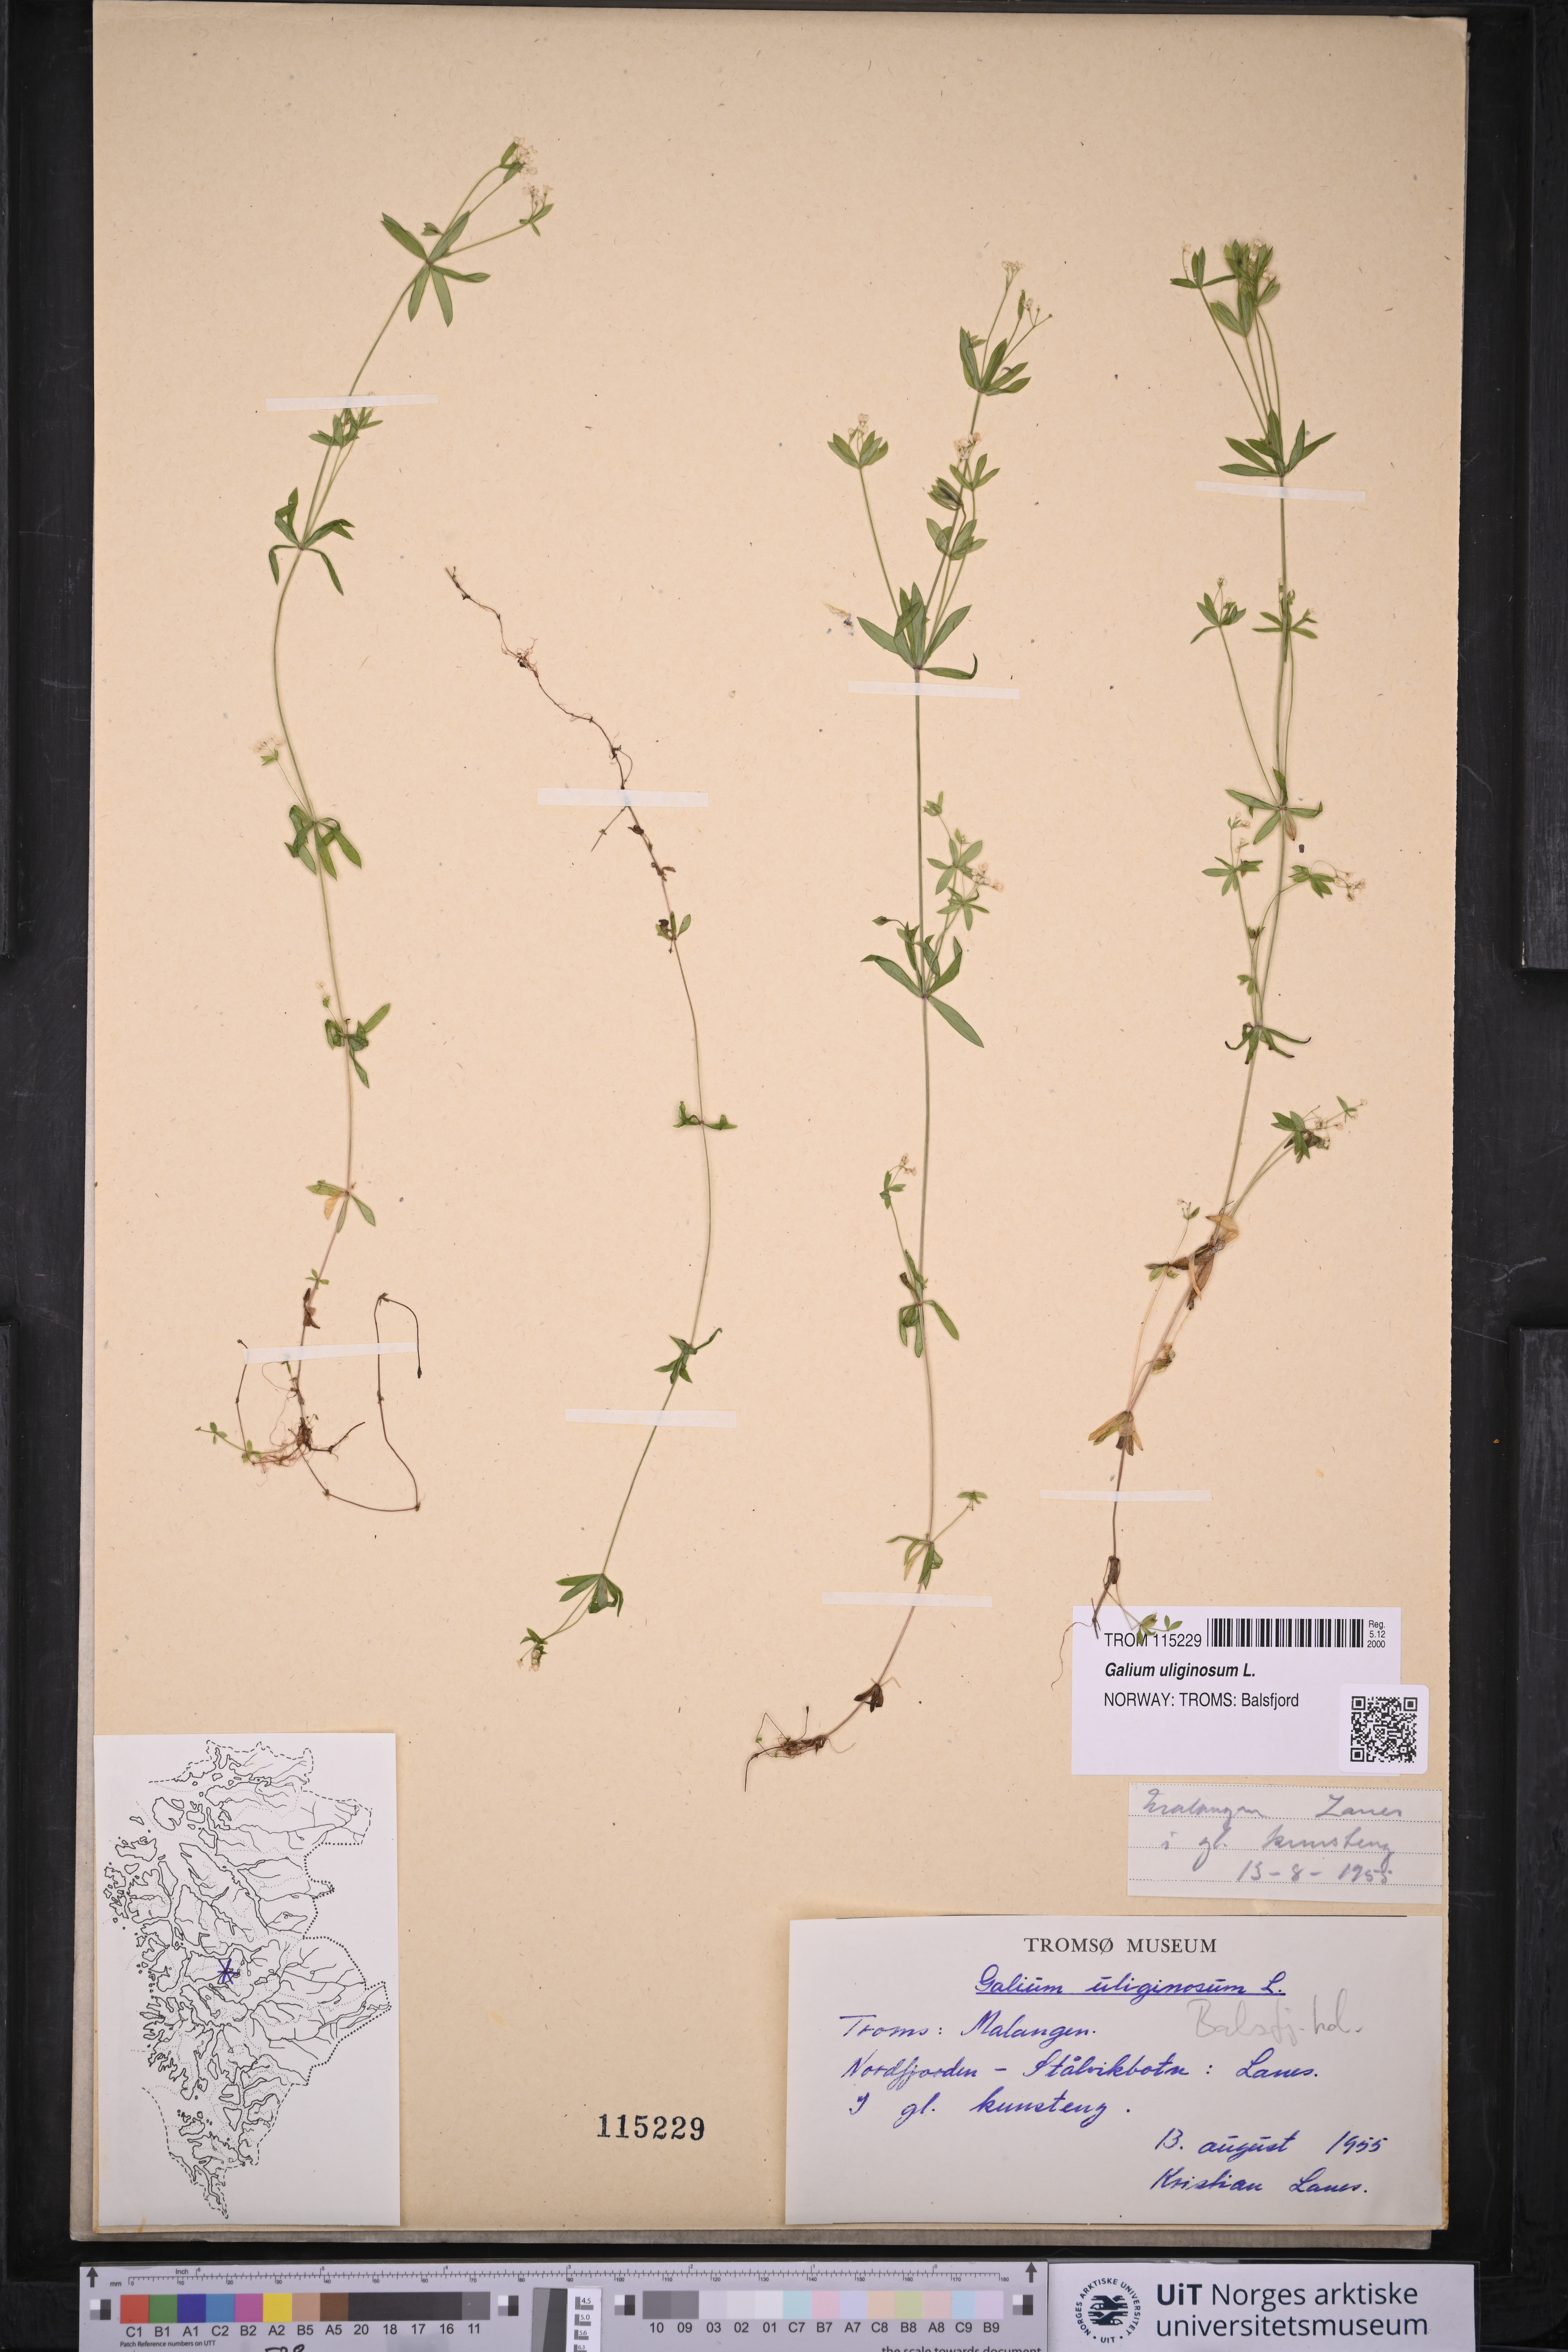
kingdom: Plantae
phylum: Tracheophyta
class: Magnoliopsida
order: Gentianales
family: Rubiaceae
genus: Galium
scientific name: Galium uliginosum
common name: Fen bedstraw
